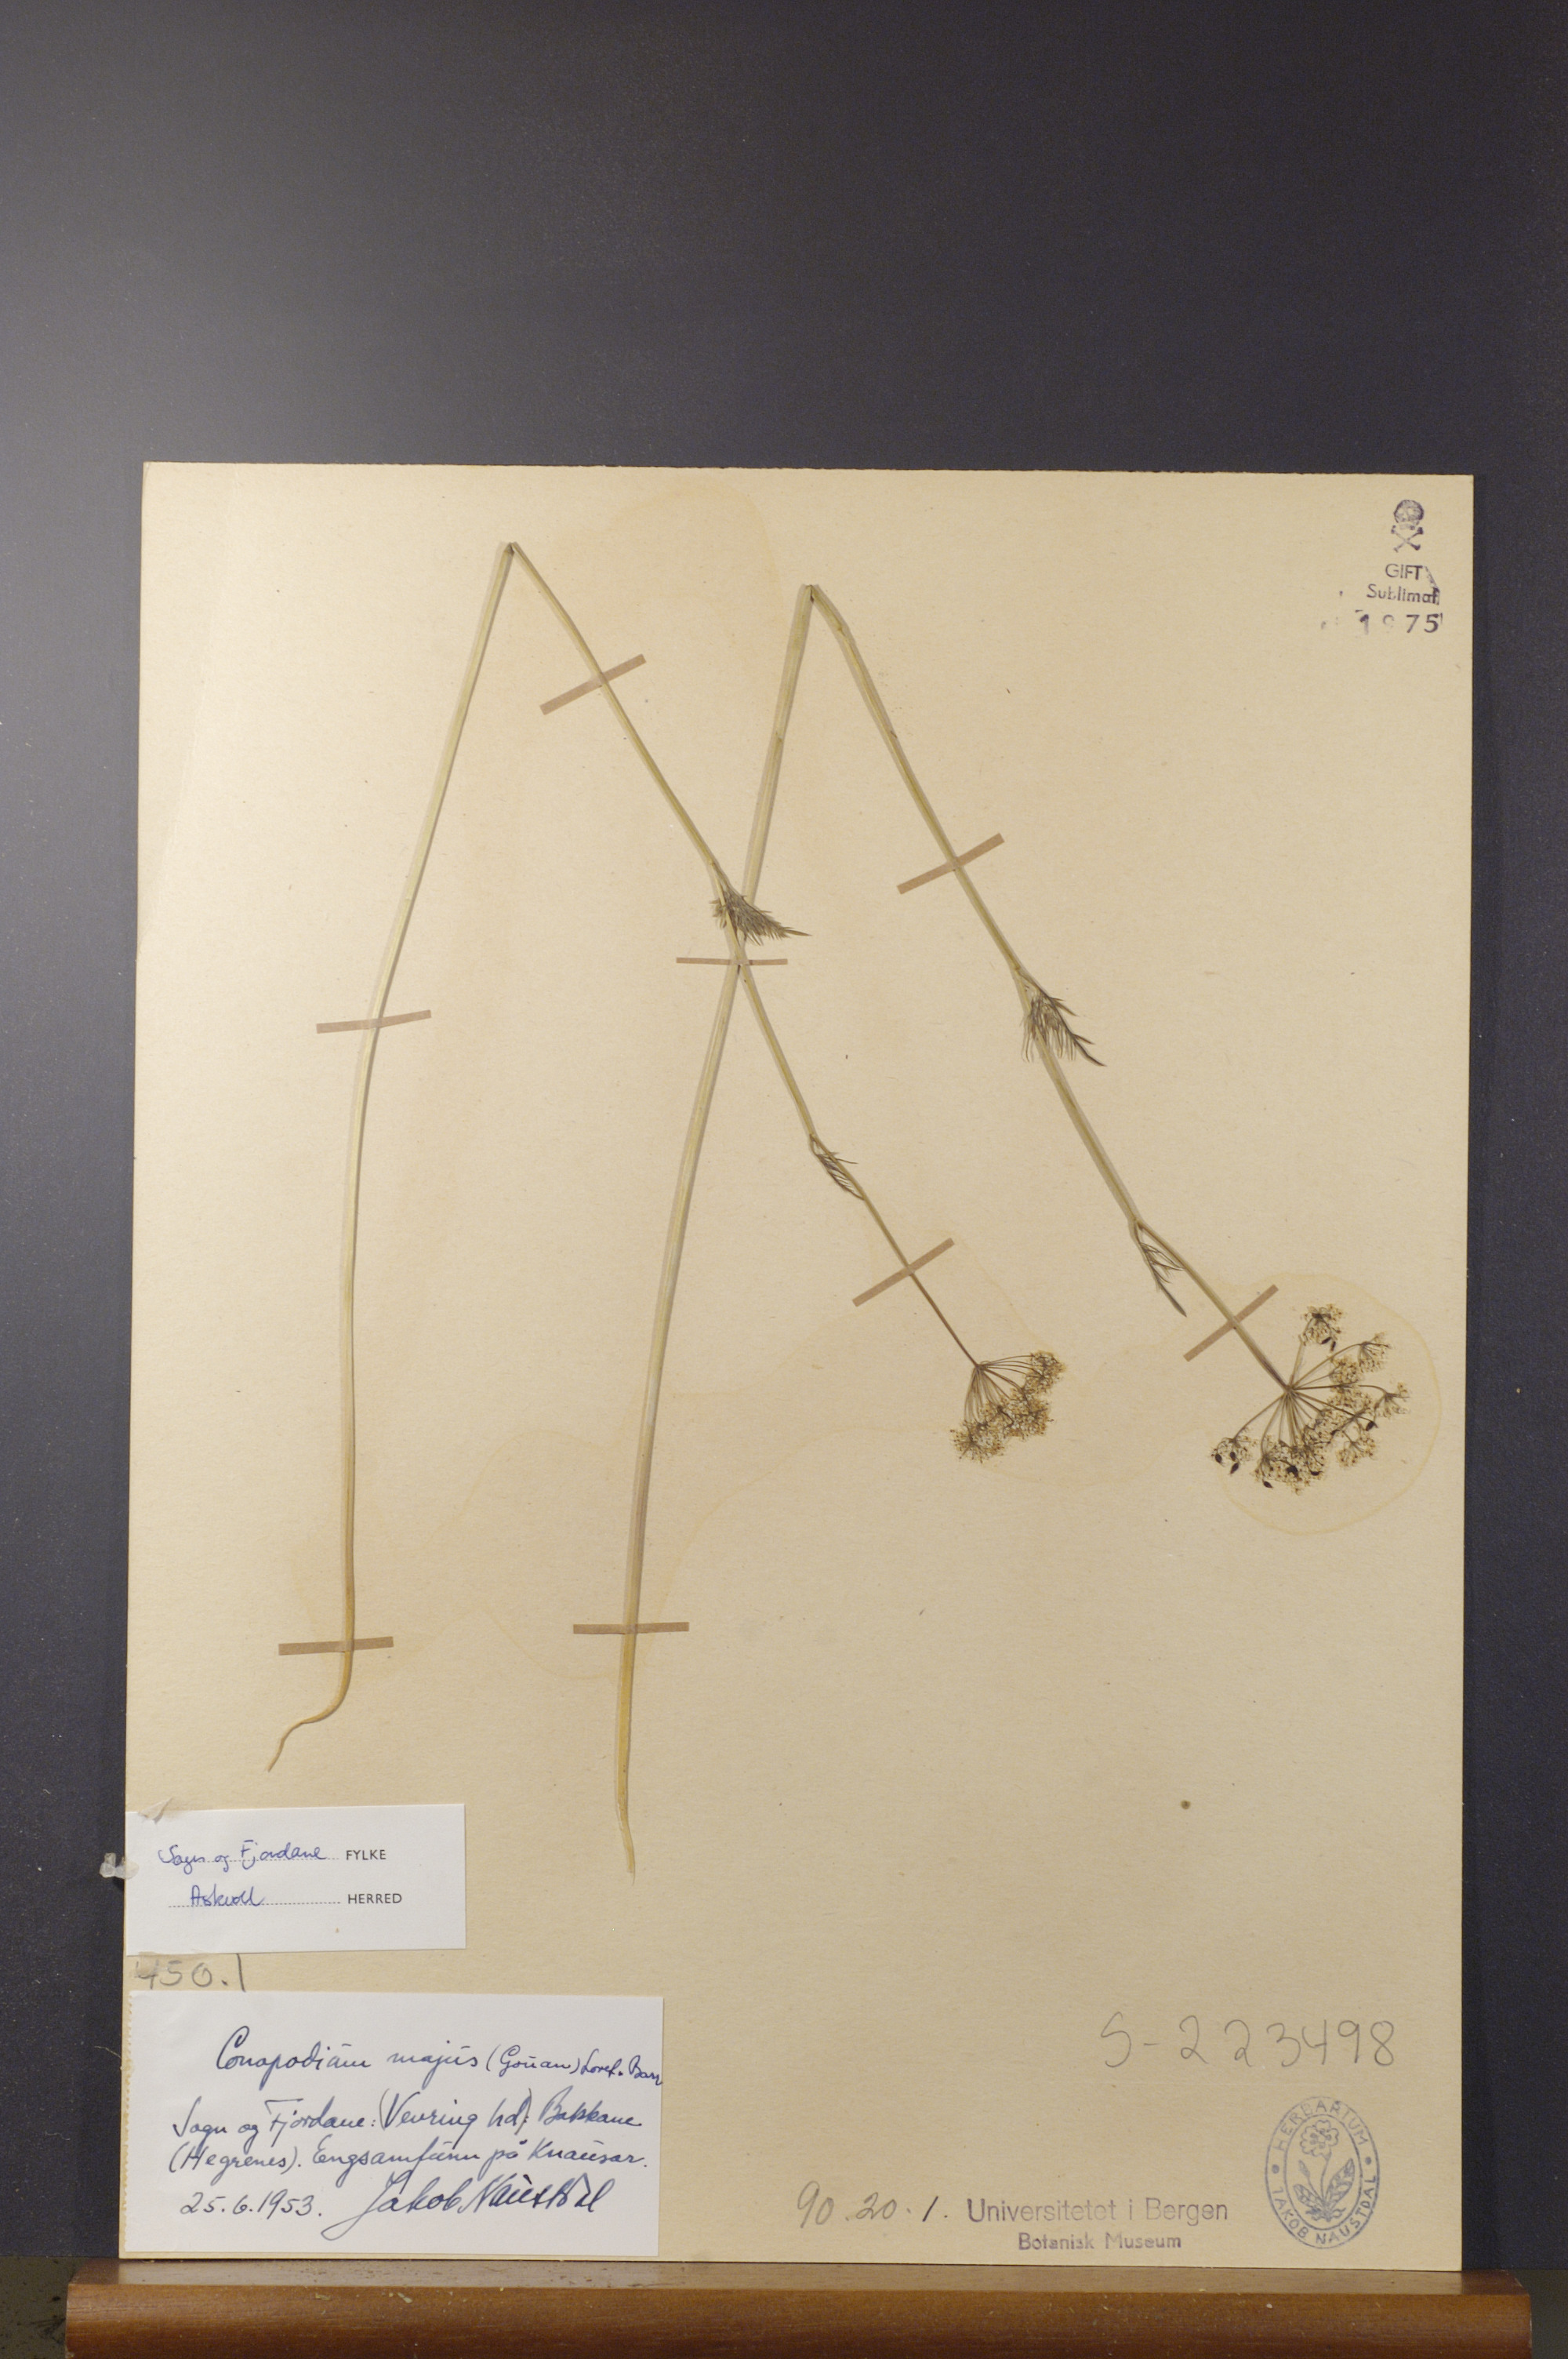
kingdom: Plantae
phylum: Tracheophyta
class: Magnoliopsida
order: Apiales
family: Apiaceae
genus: Conopodium
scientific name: Conopodium majus
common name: Pignut
